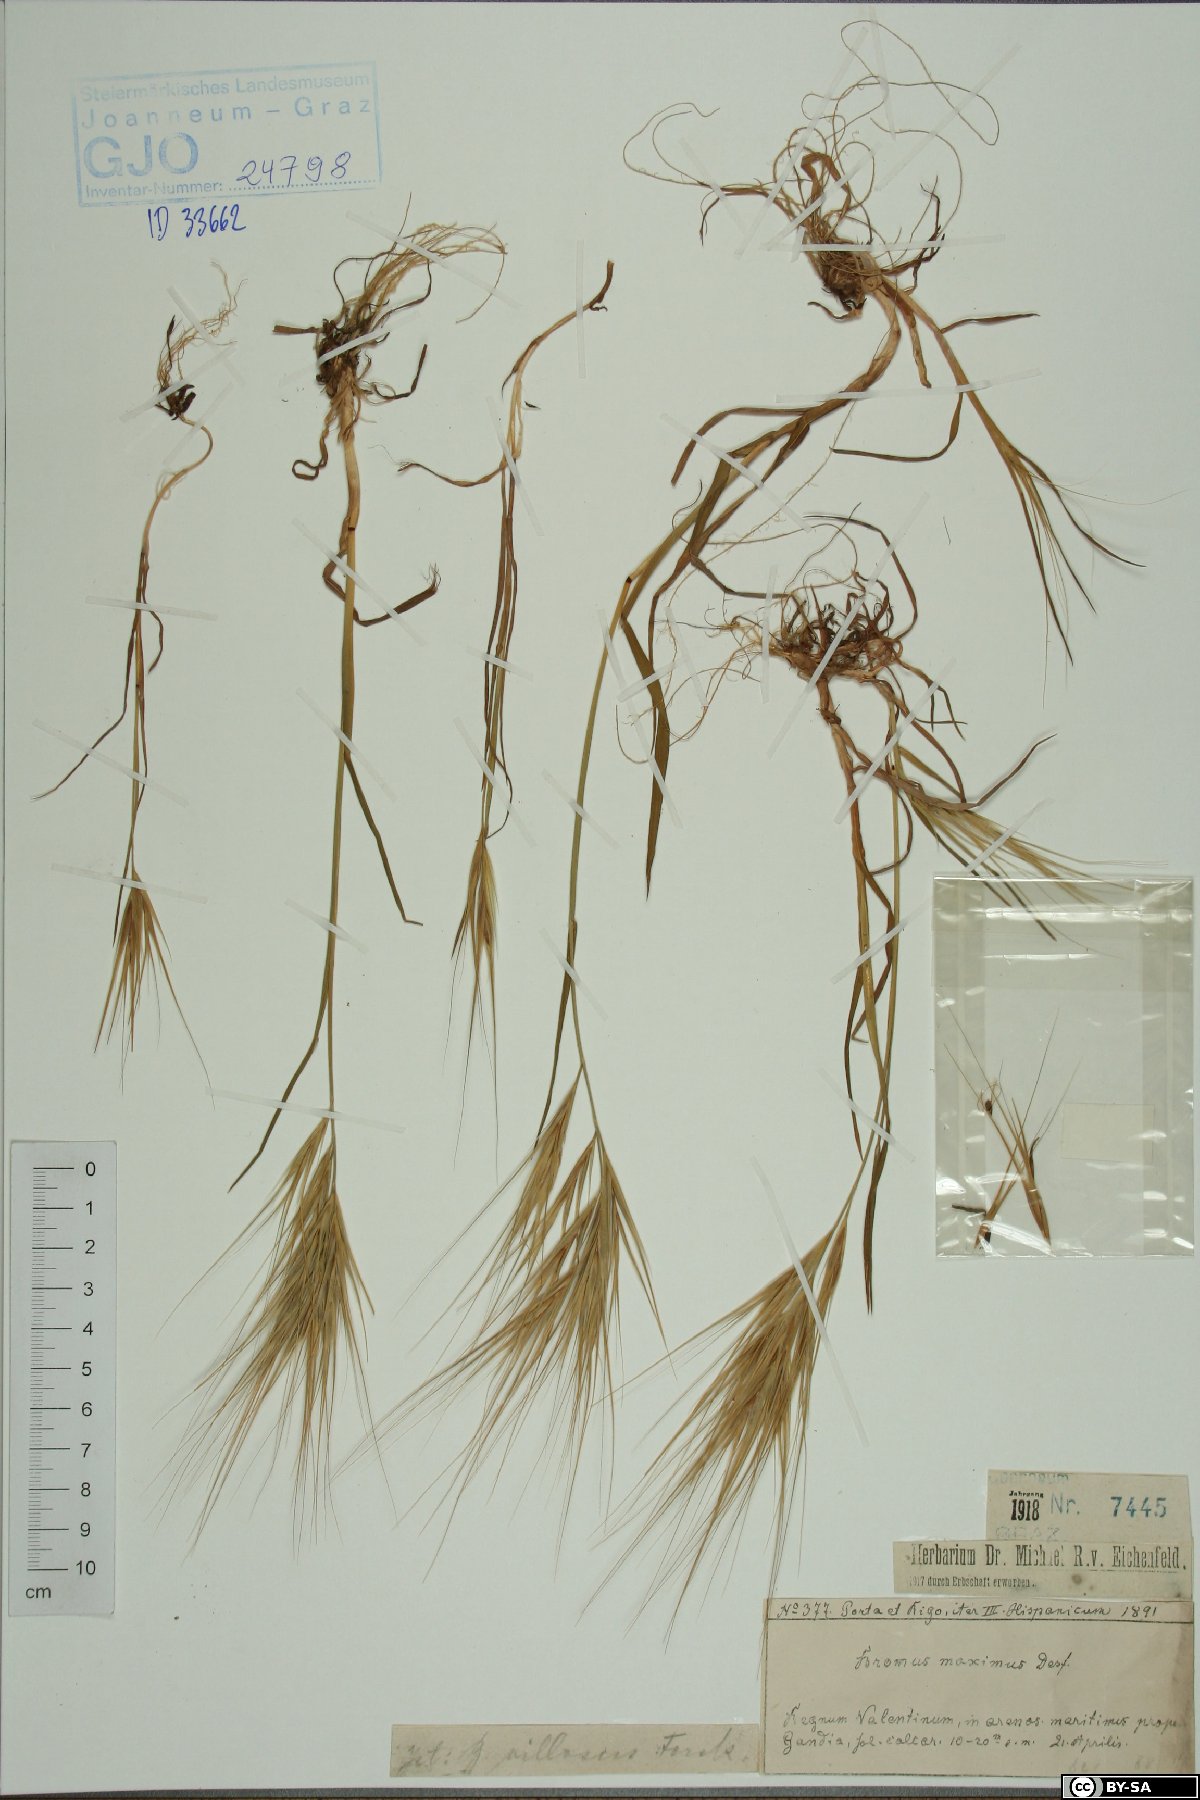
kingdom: Plantae
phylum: Tracheophyta
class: Liliopsida
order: Poales
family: Poaceae
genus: Bromus
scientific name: Bromus rigidus
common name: Ripgut brome
